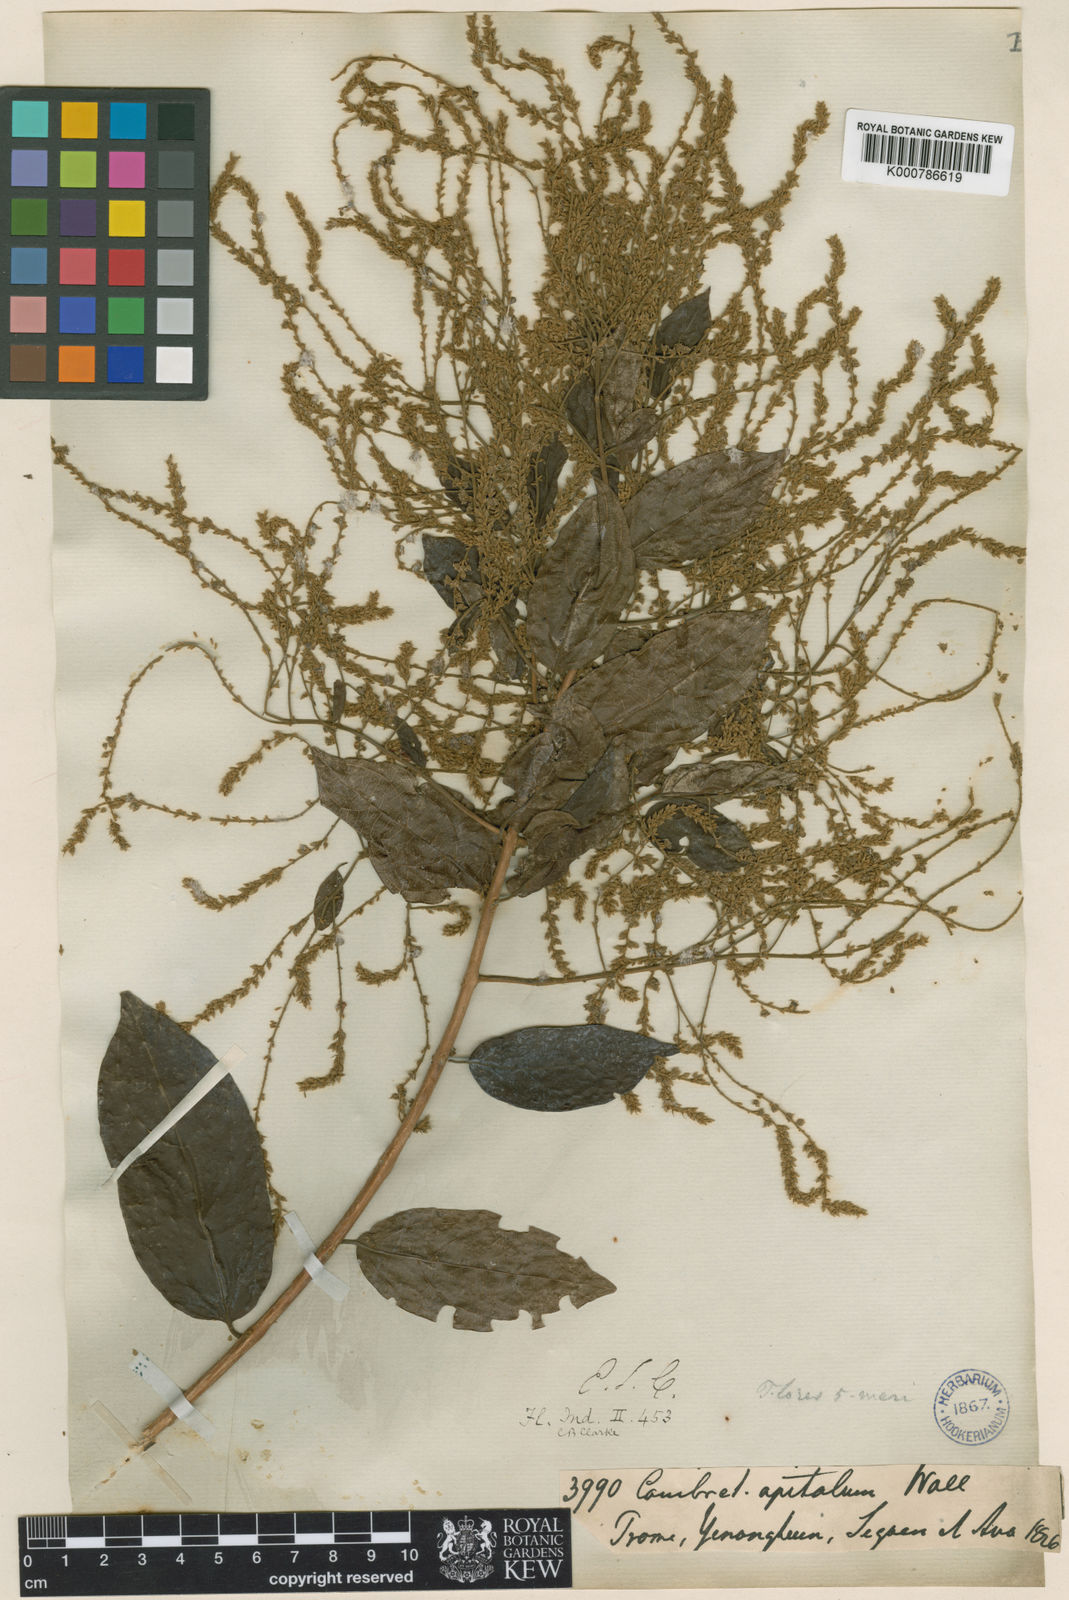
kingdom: Plantae
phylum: Tracheophyta
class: Magnoliopsida
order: Myrtales
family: Combretaceae
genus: Combretum
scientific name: Combretum
